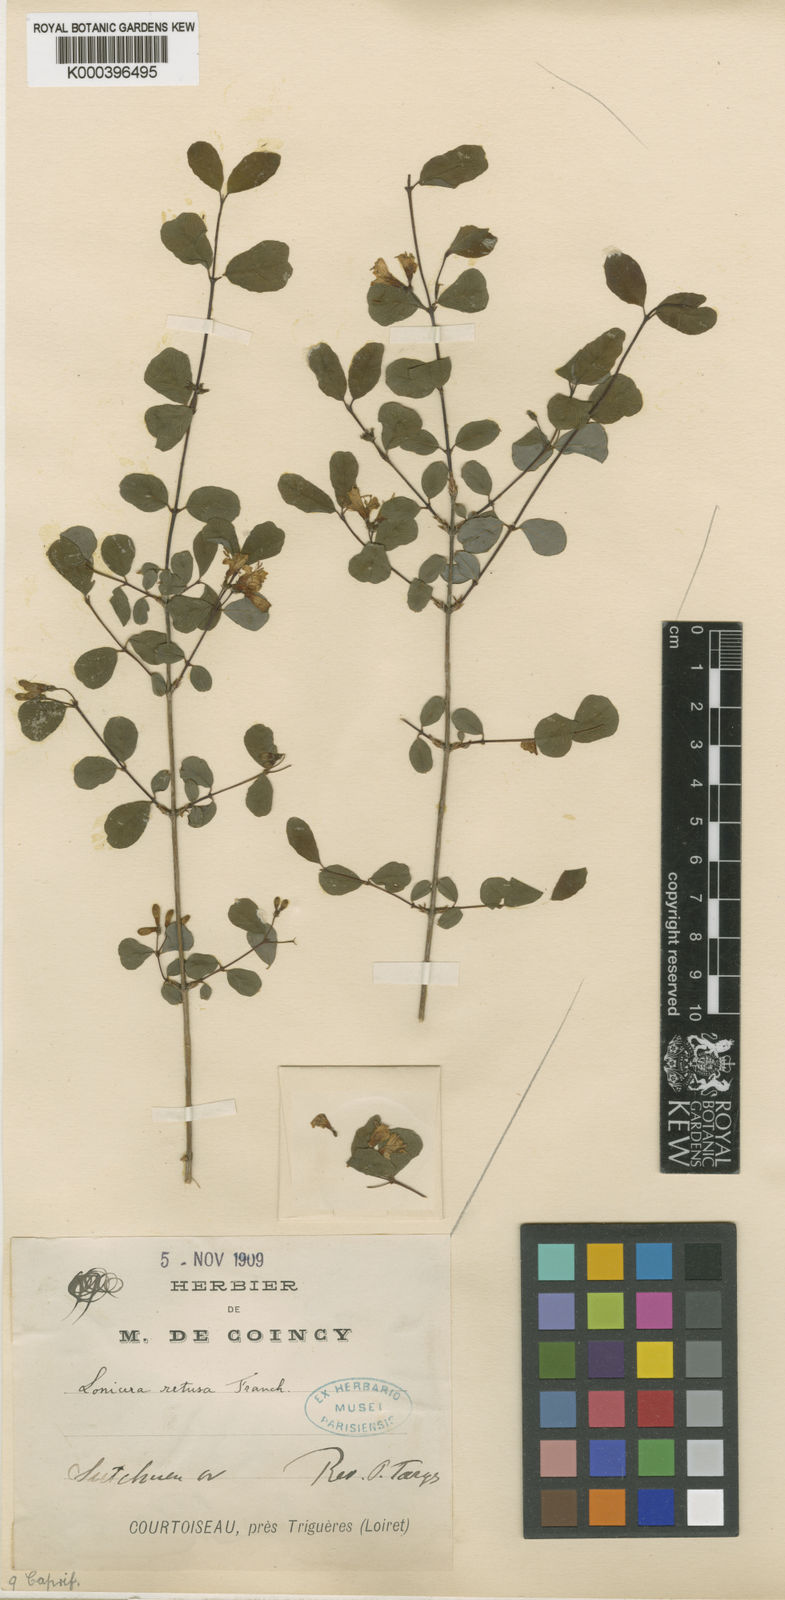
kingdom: Plantae
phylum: Tracheophyta
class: Magnoliopsida
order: Dipsacales
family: Caprifoliaceae
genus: Lonicera
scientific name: Lonicera retusa
